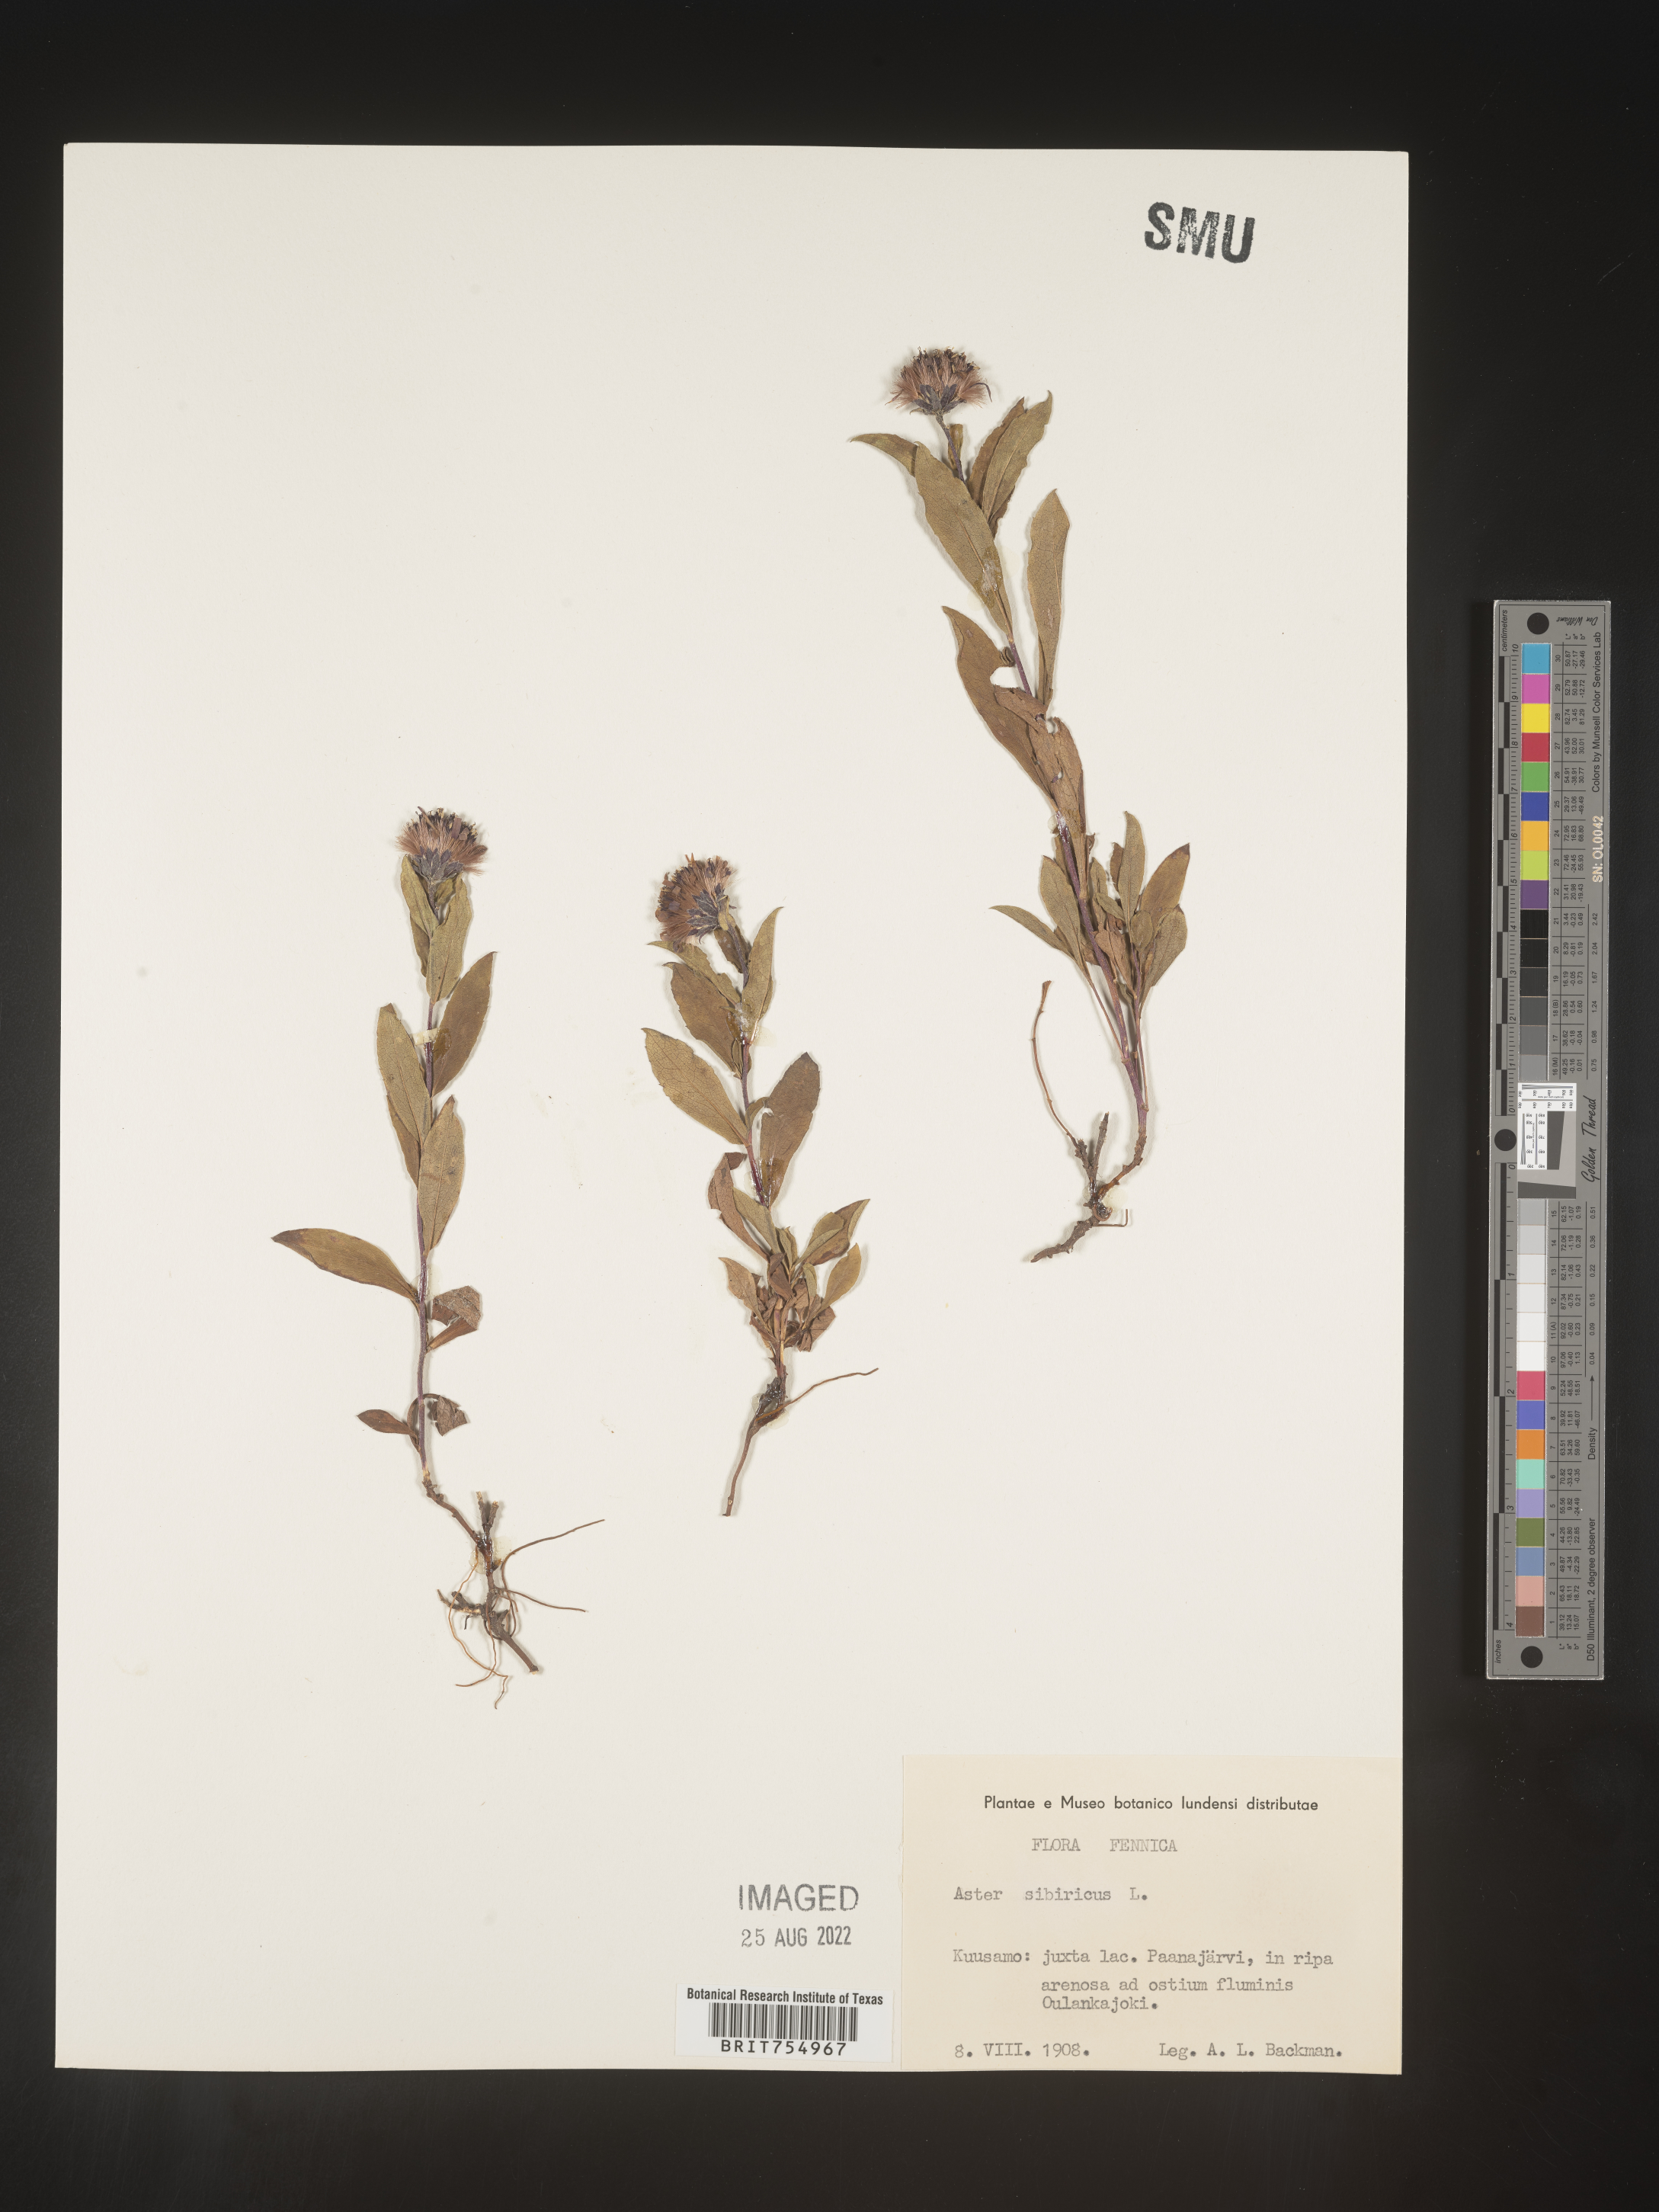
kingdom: Plantae
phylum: Tracheophyta
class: Magnoliopsida
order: Asterales
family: Asteraceae
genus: Symphyotrichum
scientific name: Symphyotrichum
